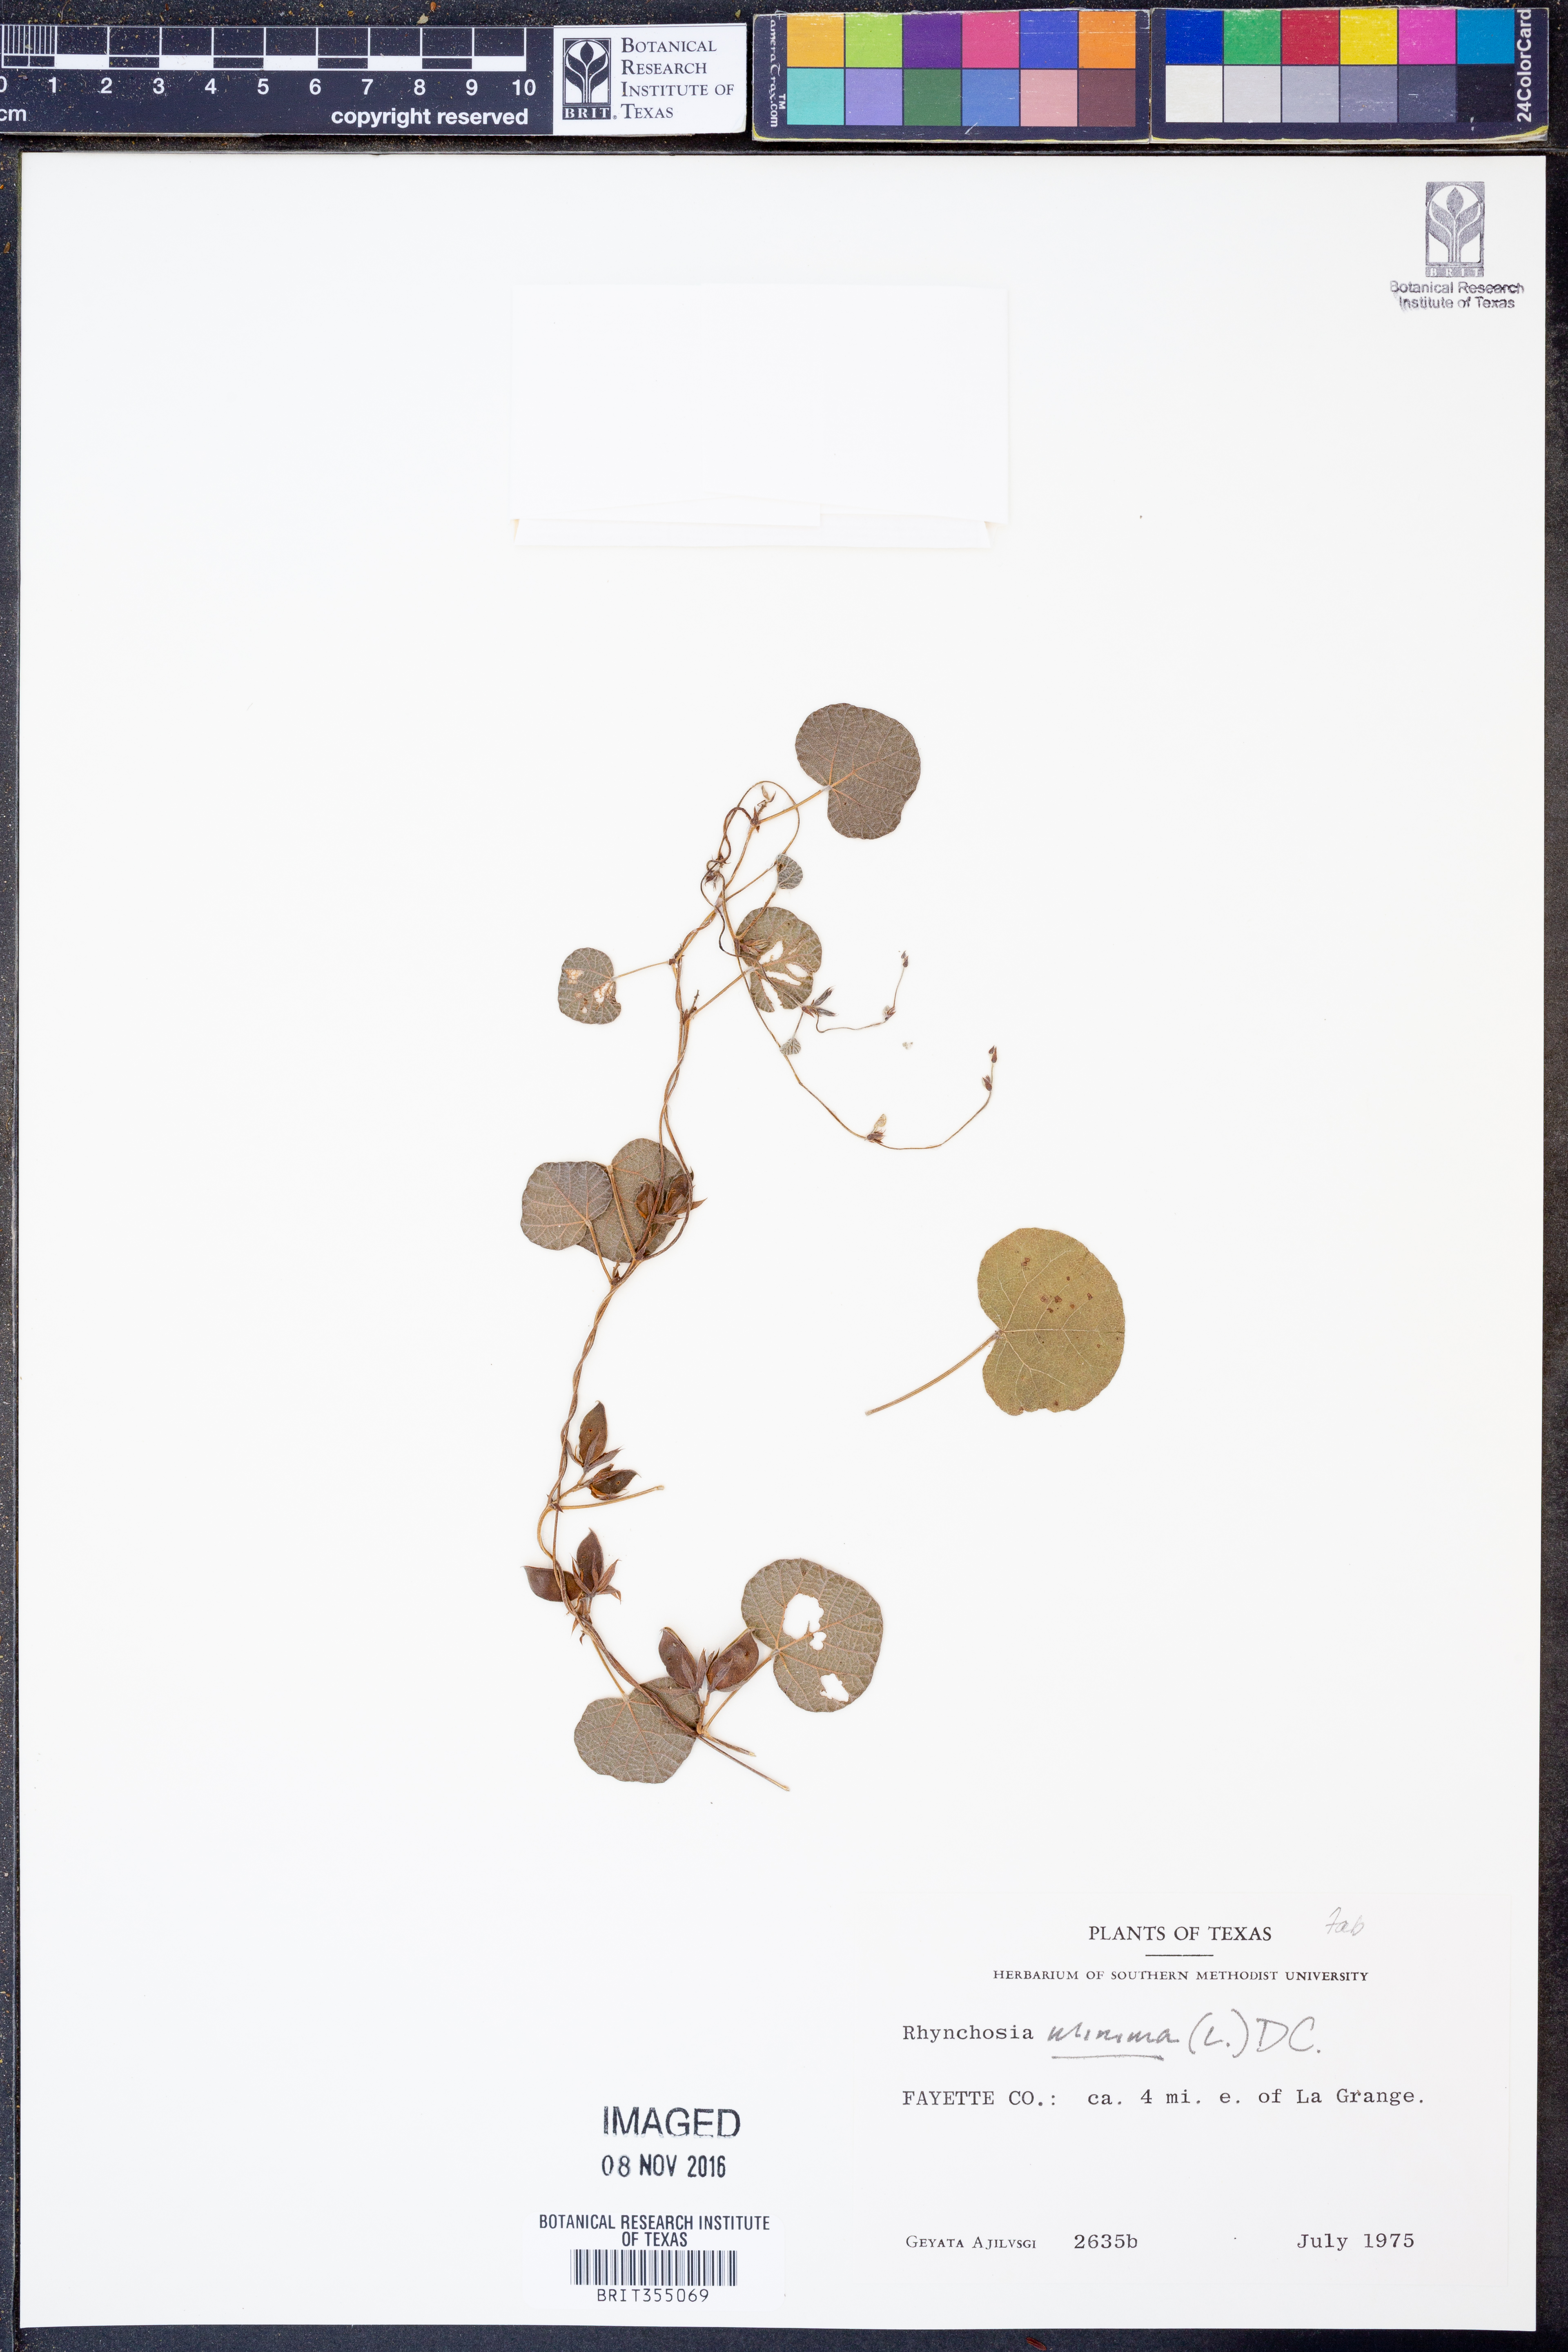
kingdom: Plantae
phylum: Tracheophyta
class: Magnoliopsida
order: Fabales
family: Fabaceae
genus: Rhynchosia
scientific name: Rhynchosia minima
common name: Least snoutbean
